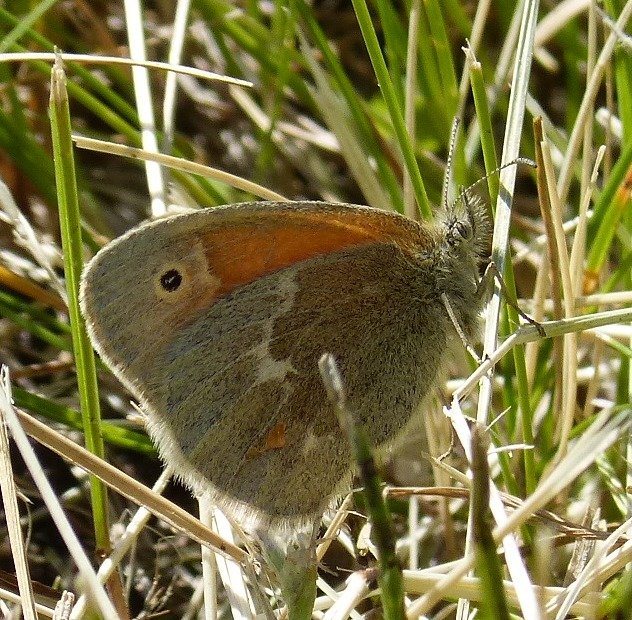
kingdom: Animalia
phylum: Arthropoda
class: Insecta
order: Lepidoptera
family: Nymphalidae
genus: Coenonympha
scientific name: Coenonympha tullia
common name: Large Heath
